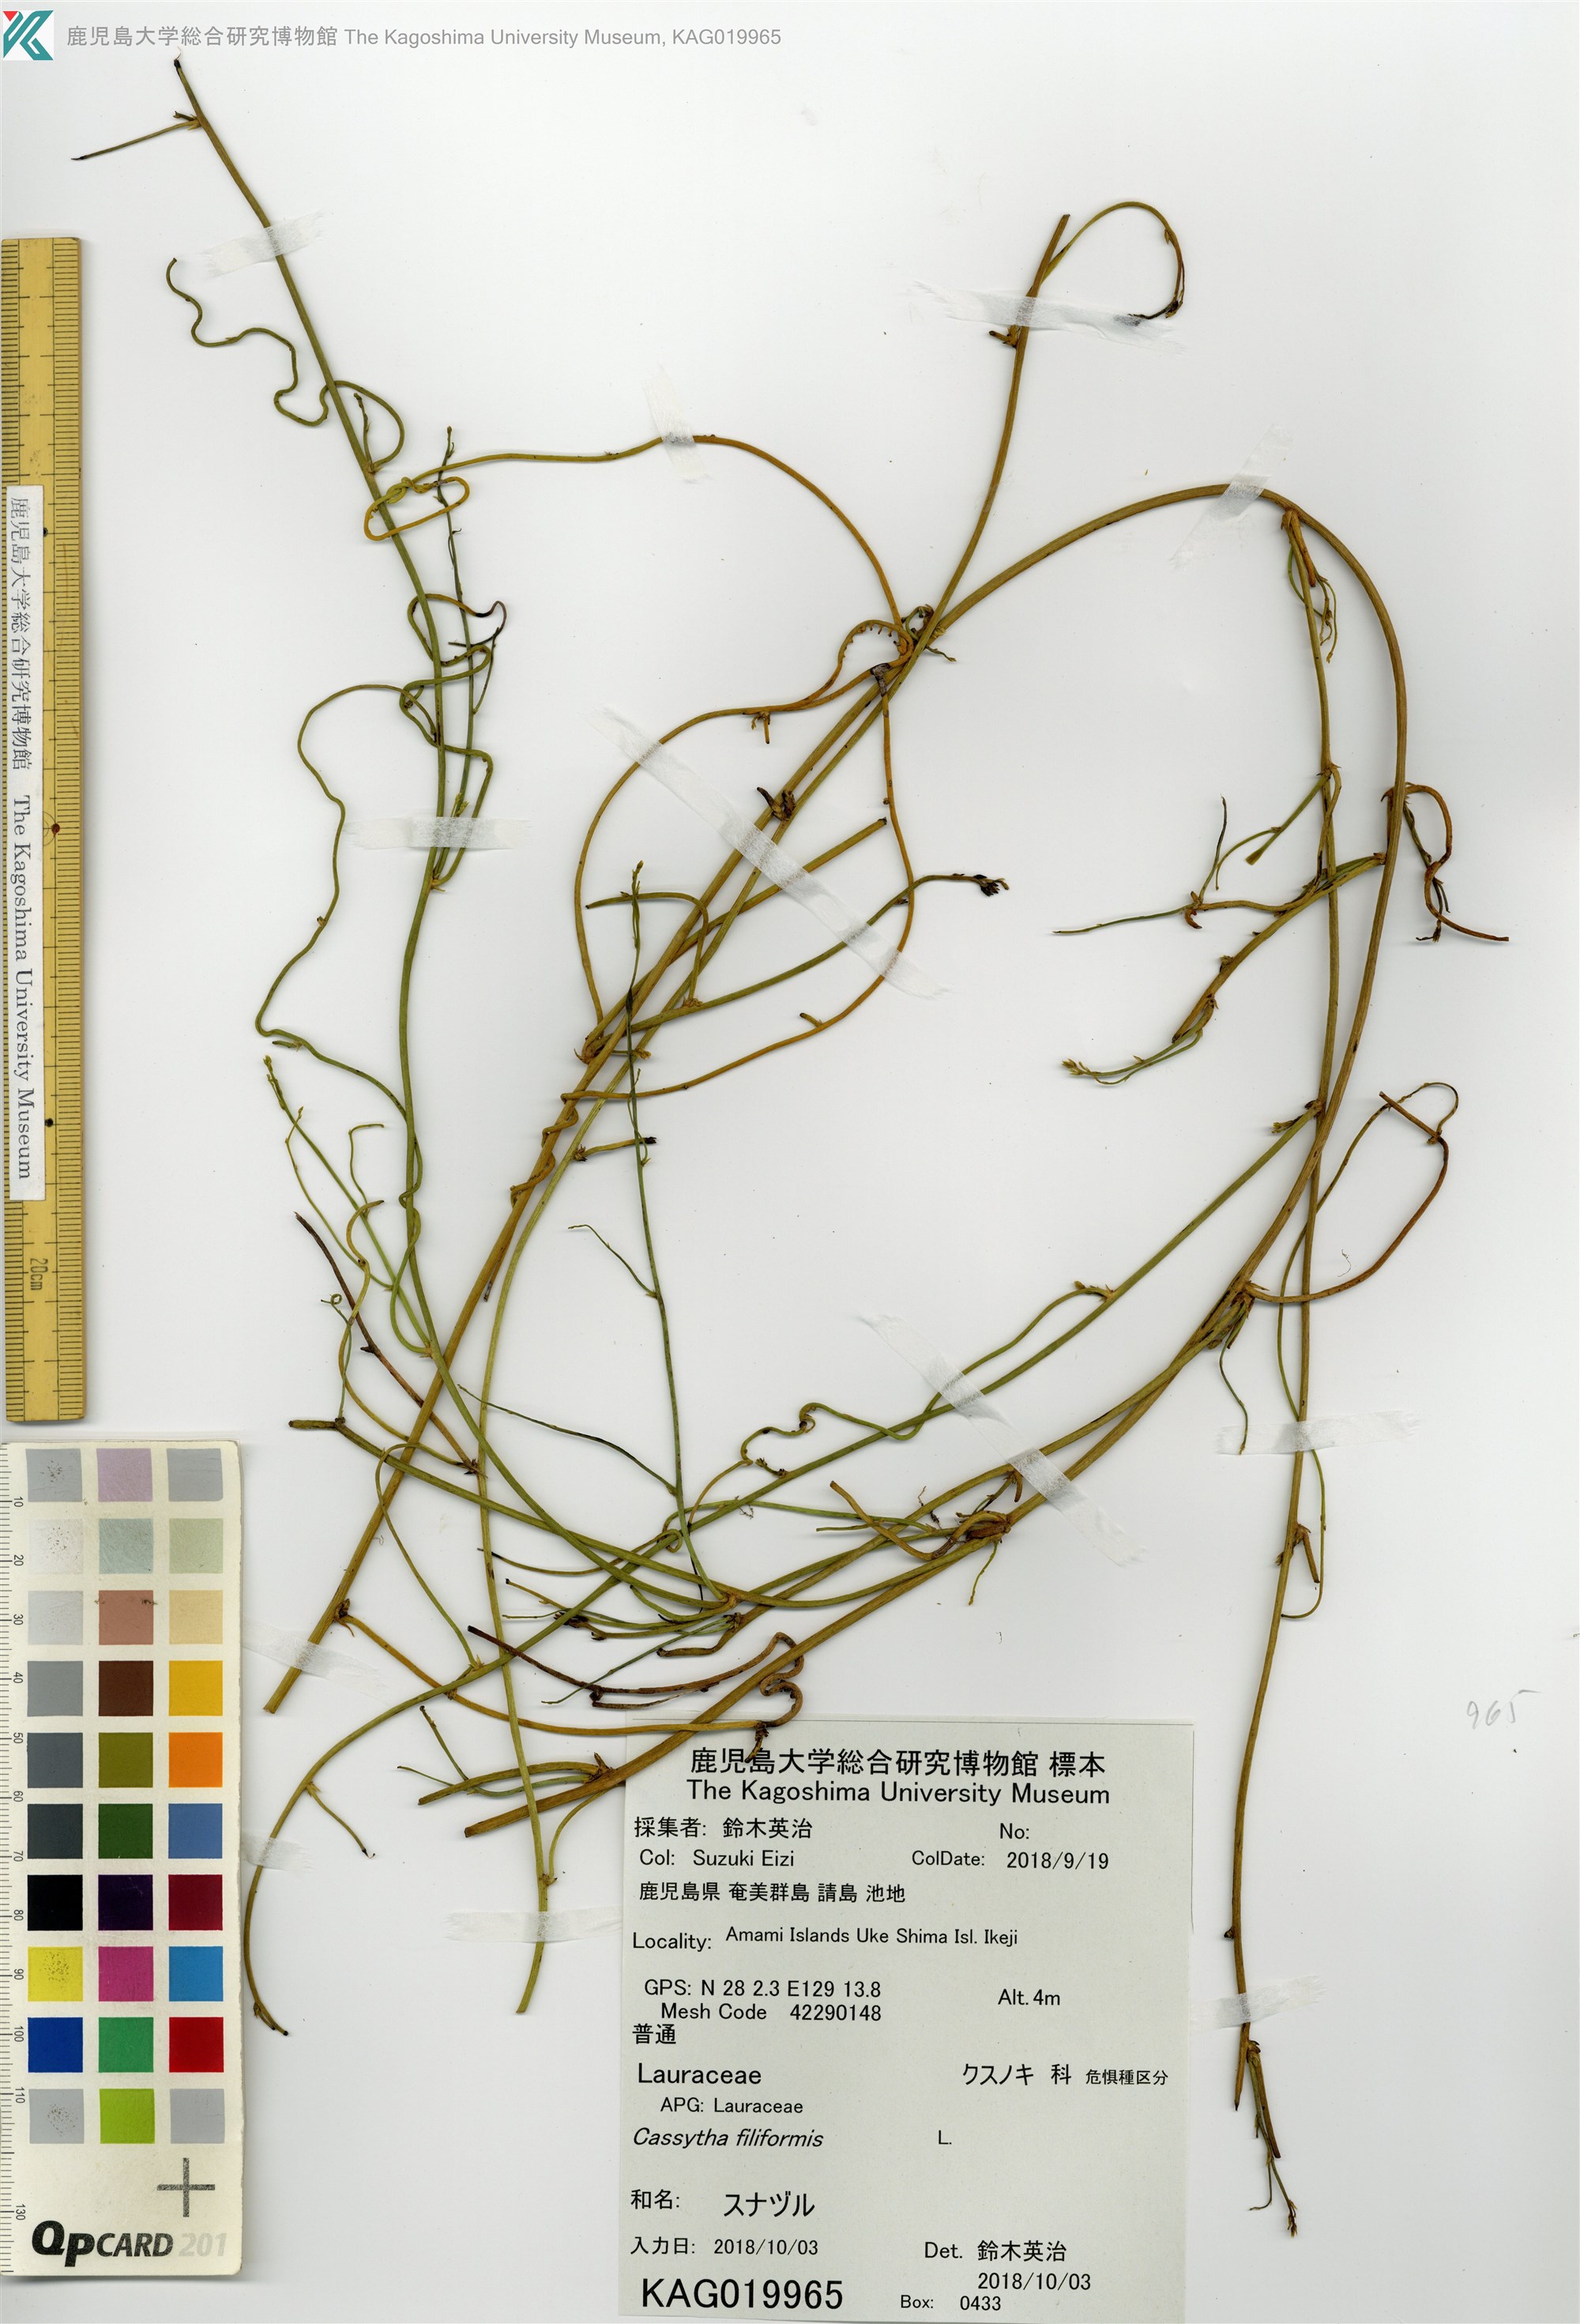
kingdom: Plantae
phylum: Tracheophyta
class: Magnoliopsida
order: Laurales
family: Lauraceae
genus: Cassytha
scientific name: Cassytha filiformis
